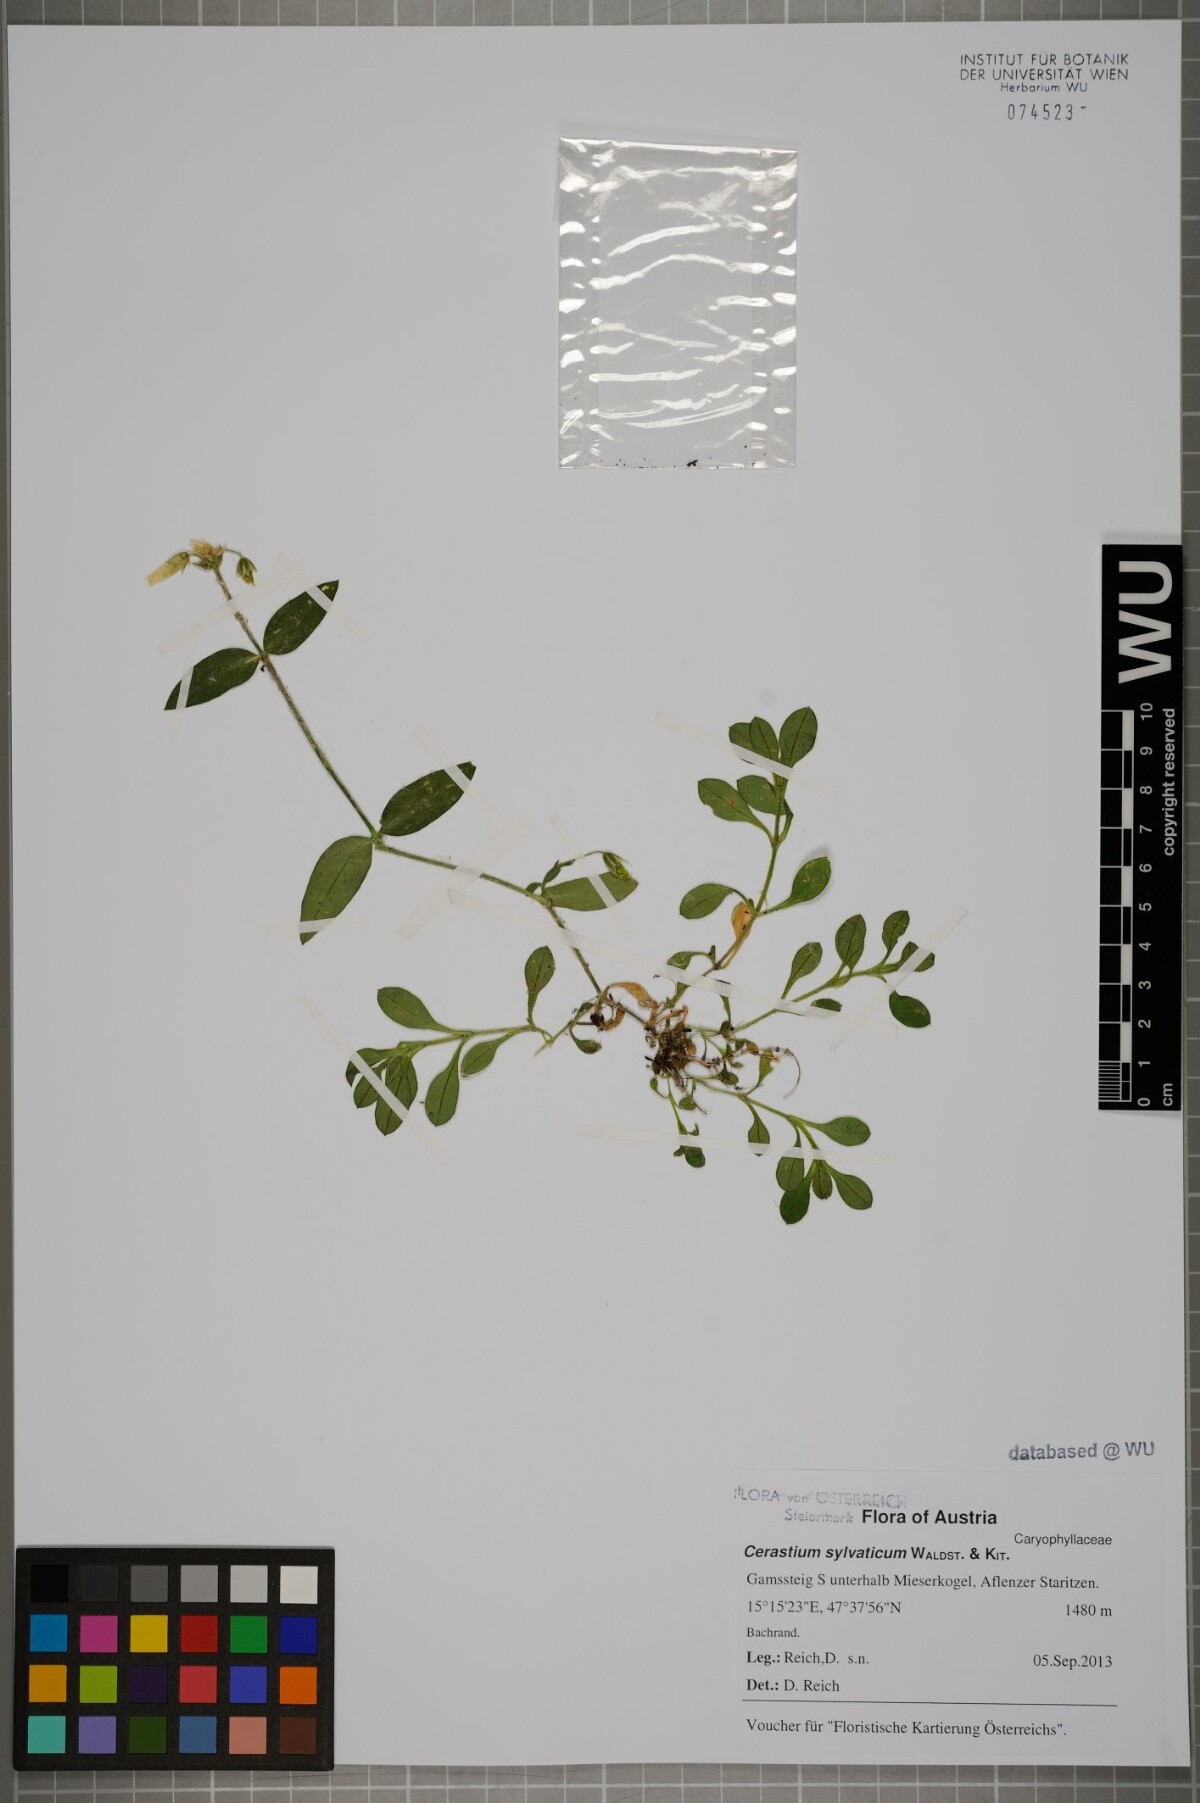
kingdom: Plantae
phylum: Tracheophyta
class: Magnoliopsida
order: Caryophyllales
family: Caryophyllaceae
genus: Cerastium
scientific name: Cerastium holosteoides
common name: Big chickweed
